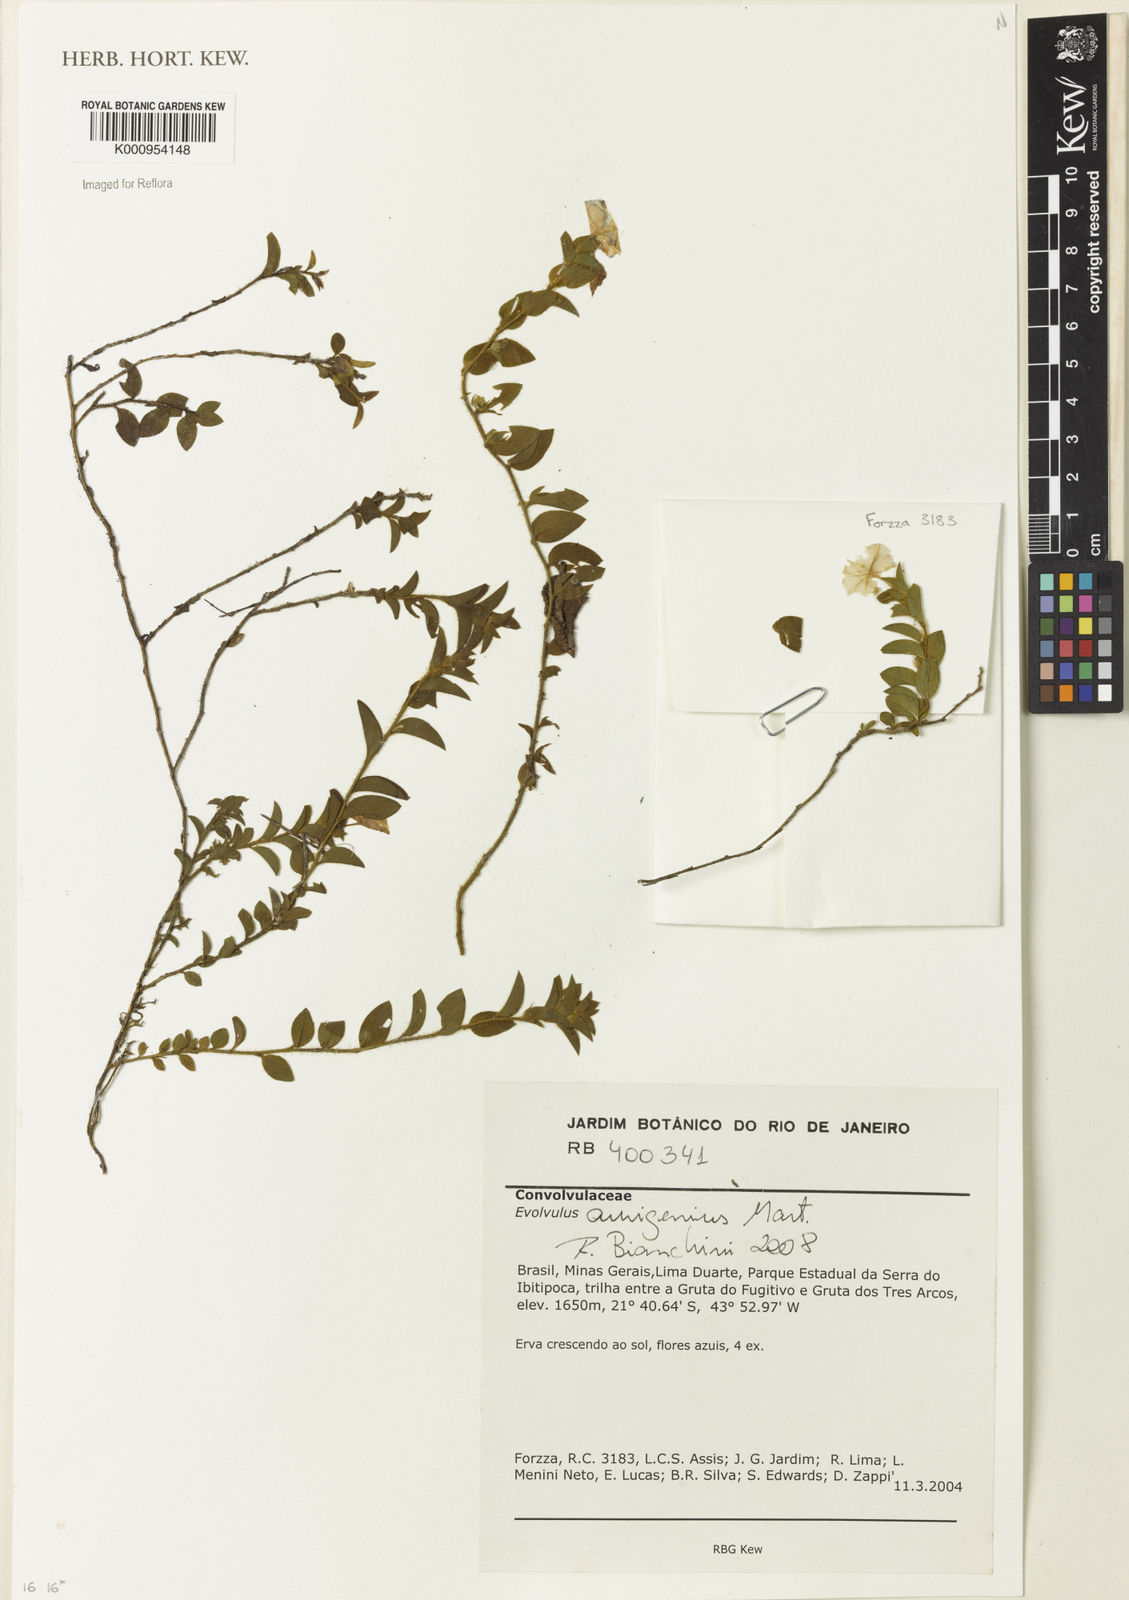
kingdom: Plantae
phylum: Tracheophyta
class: Magnoliopsida
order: Solanales
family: Convolvulaceae
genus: Evolvulus
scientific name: Evolvulus aurigenius
